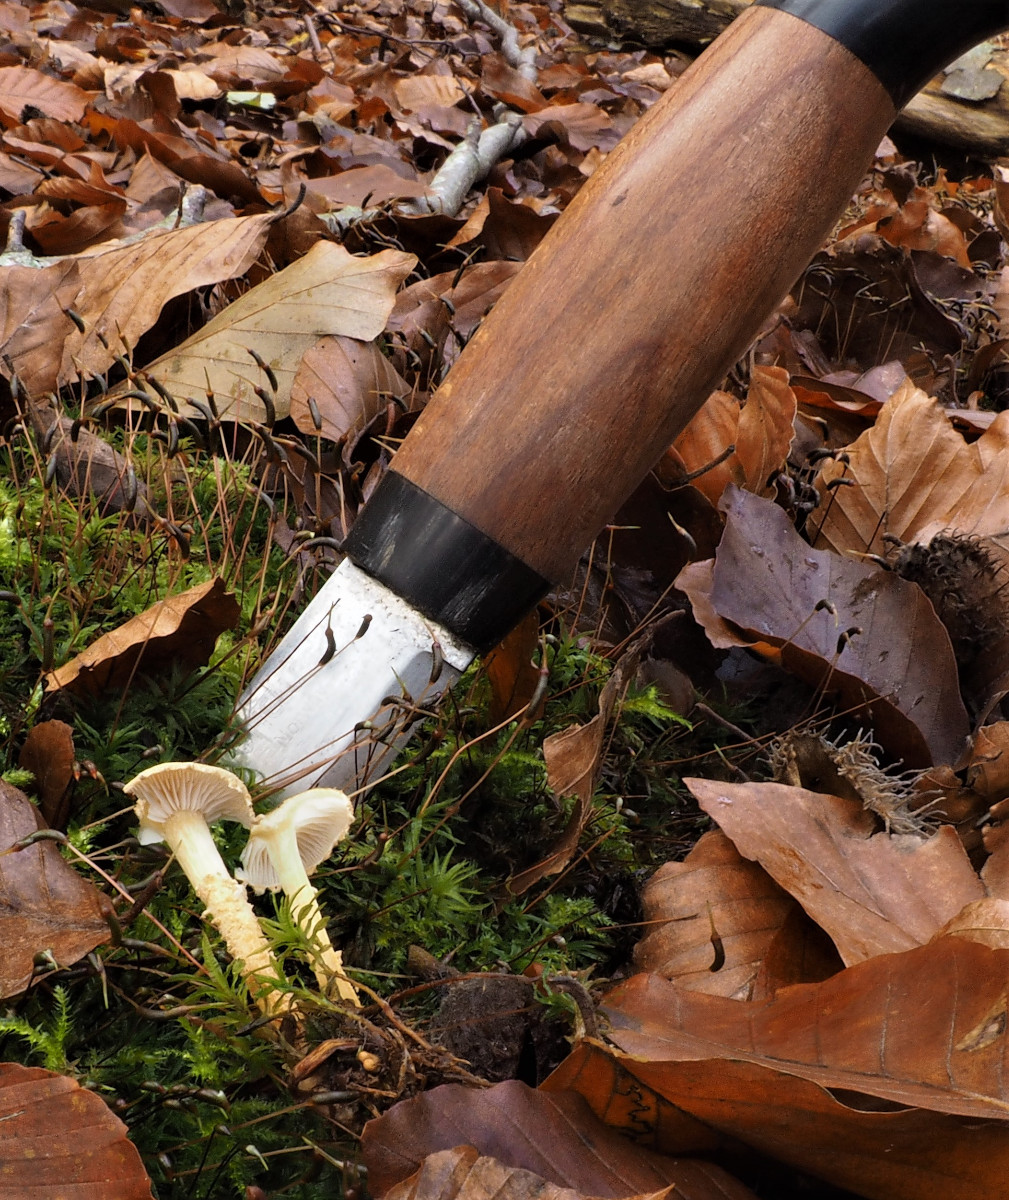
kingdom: Fungi
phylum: Basidiomycota
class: Agaricomycetes
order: Agaricales
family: Tricholomataceae
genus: Cystoderma
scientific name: Cystoderma amianthinum
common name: okkergul grynhat
